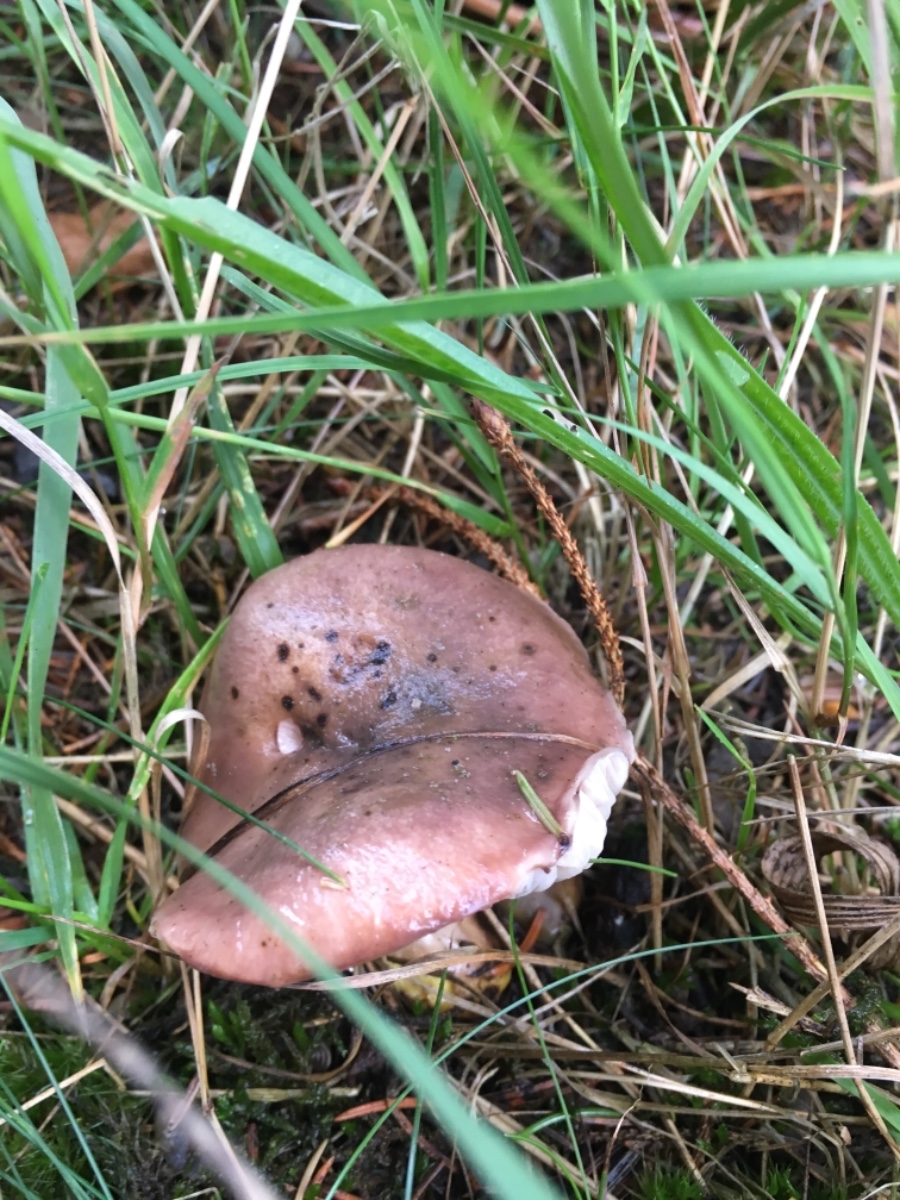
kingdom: Fungi
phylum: Basidiomycota
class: Agaricomycetes
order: Boletales
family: Gomphidiaceae
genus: Gomphidius
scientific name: Gomphidius glutinosus
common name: grå slimslør
